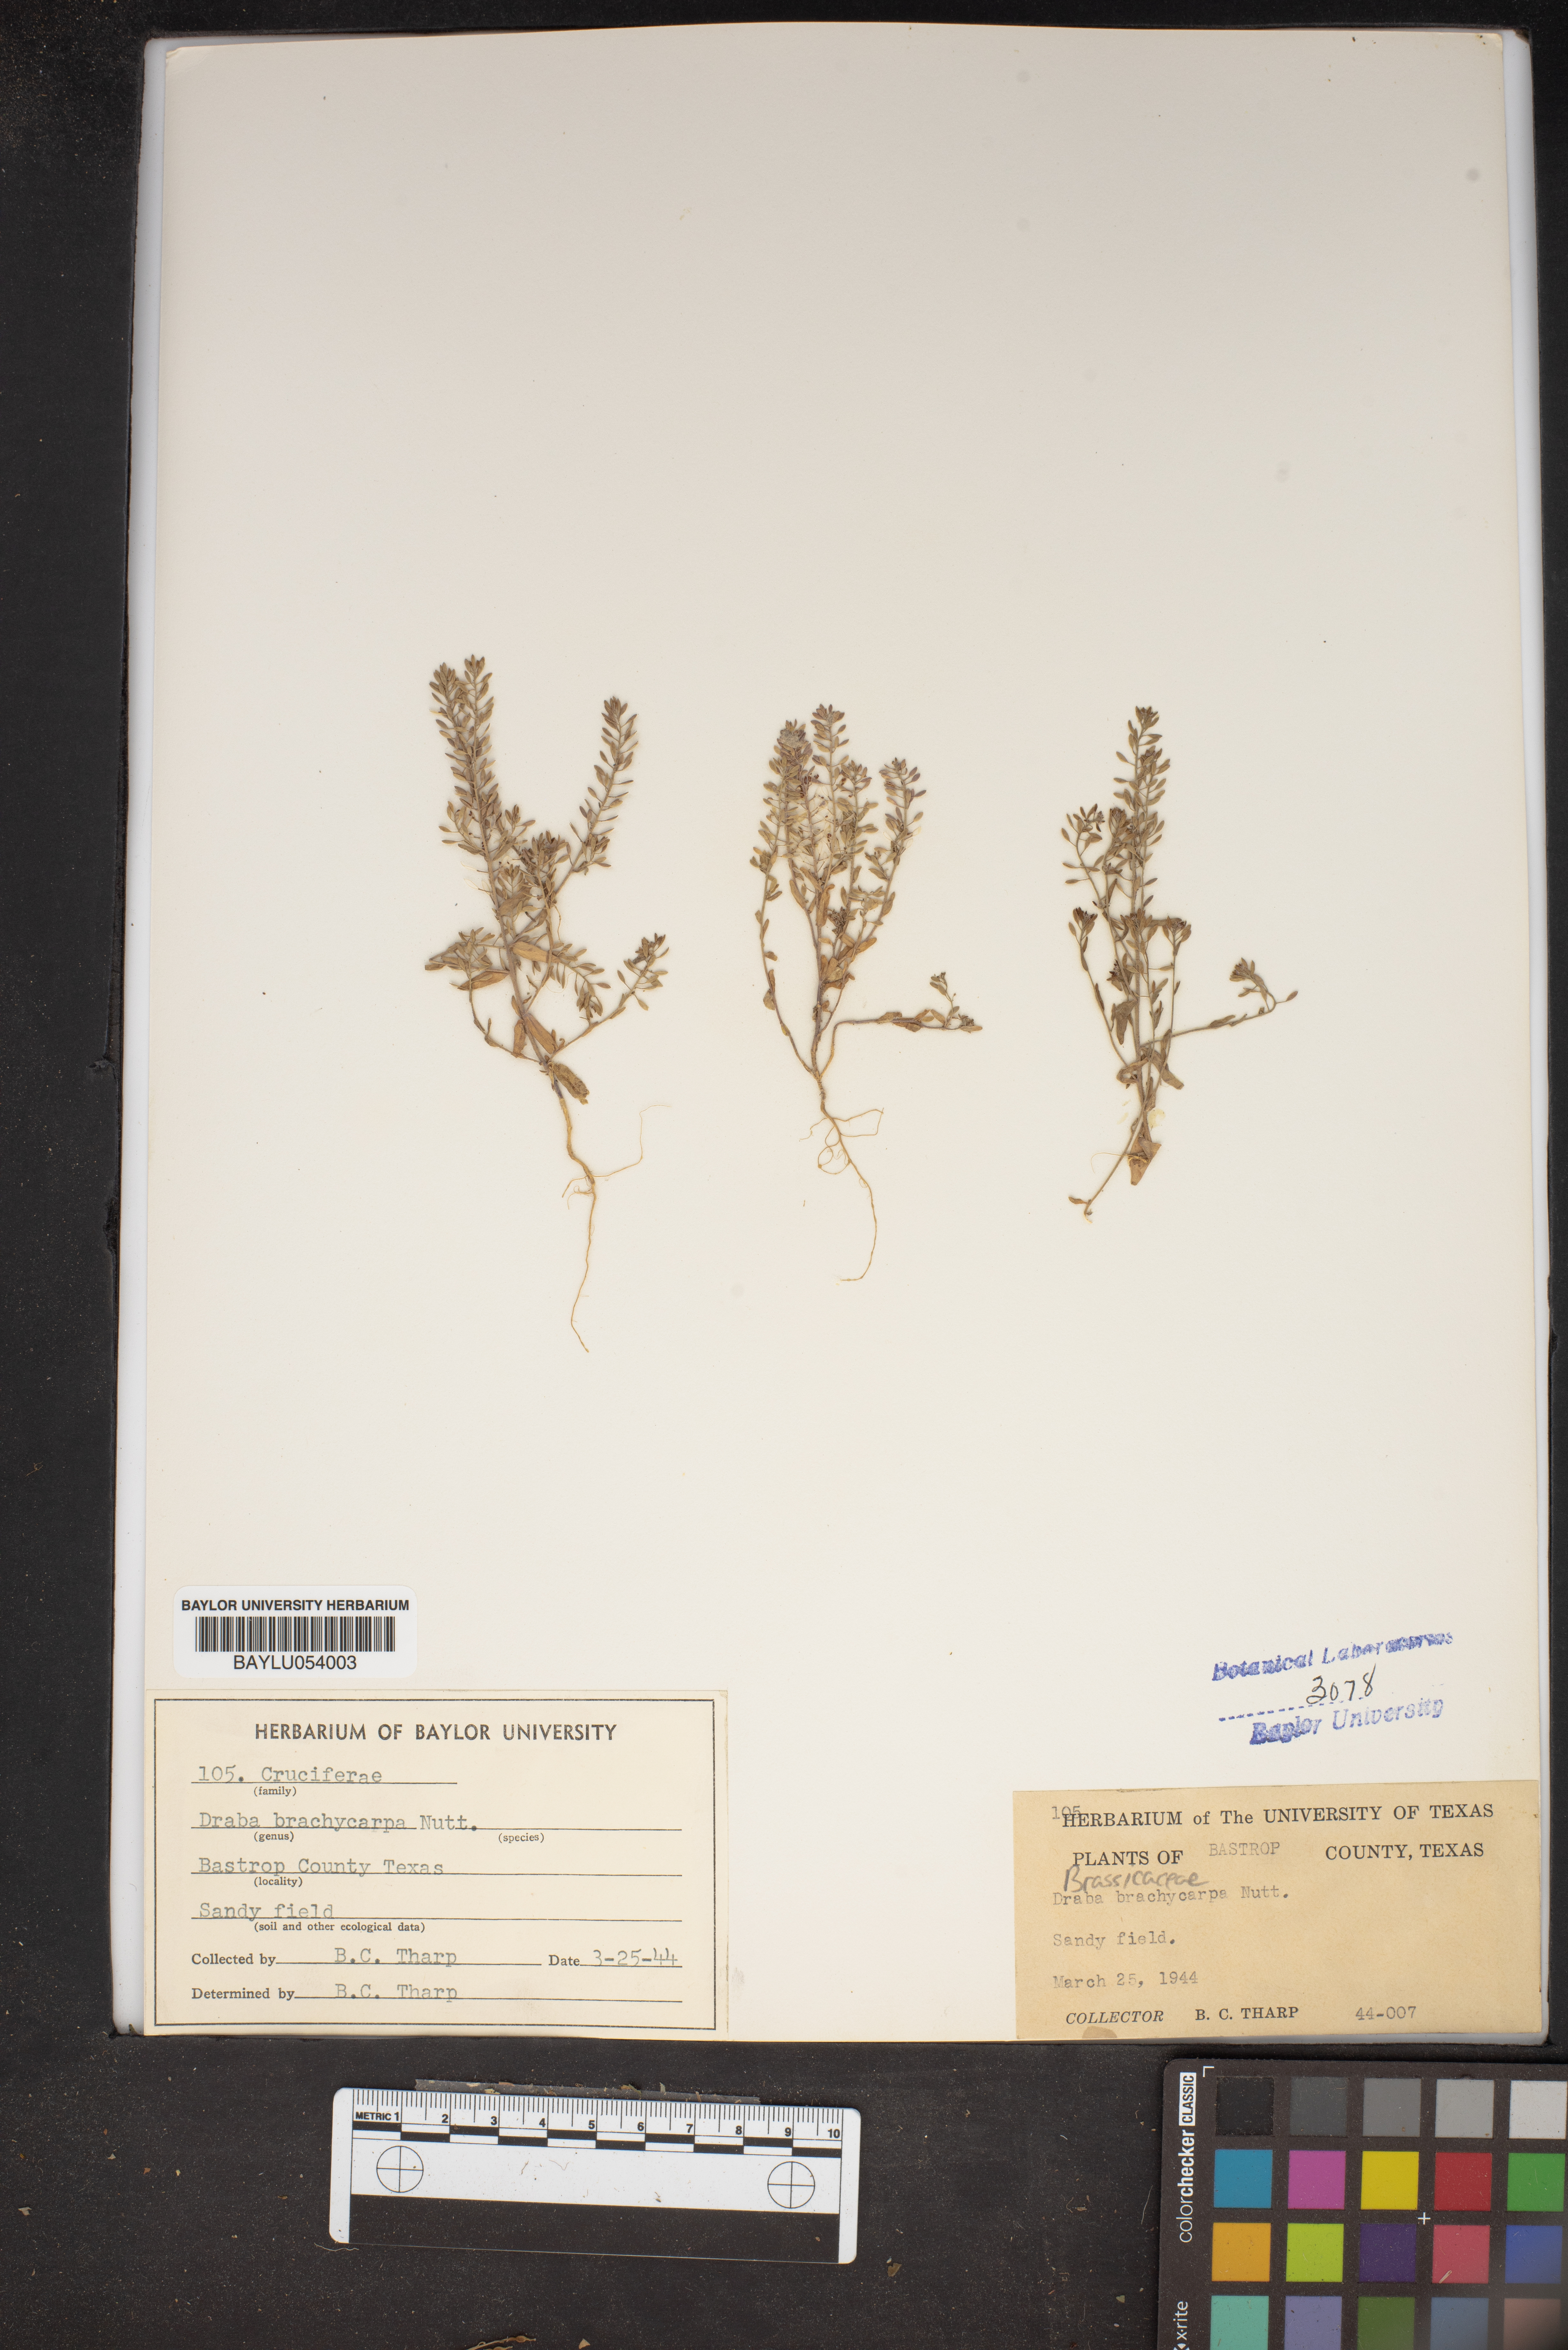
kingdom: Plantae
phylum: Tracheophyta
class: Magnoliopsida
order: Brassicales
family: Brassicaceae
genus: Abdra
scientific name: Abdra brachycarpa
